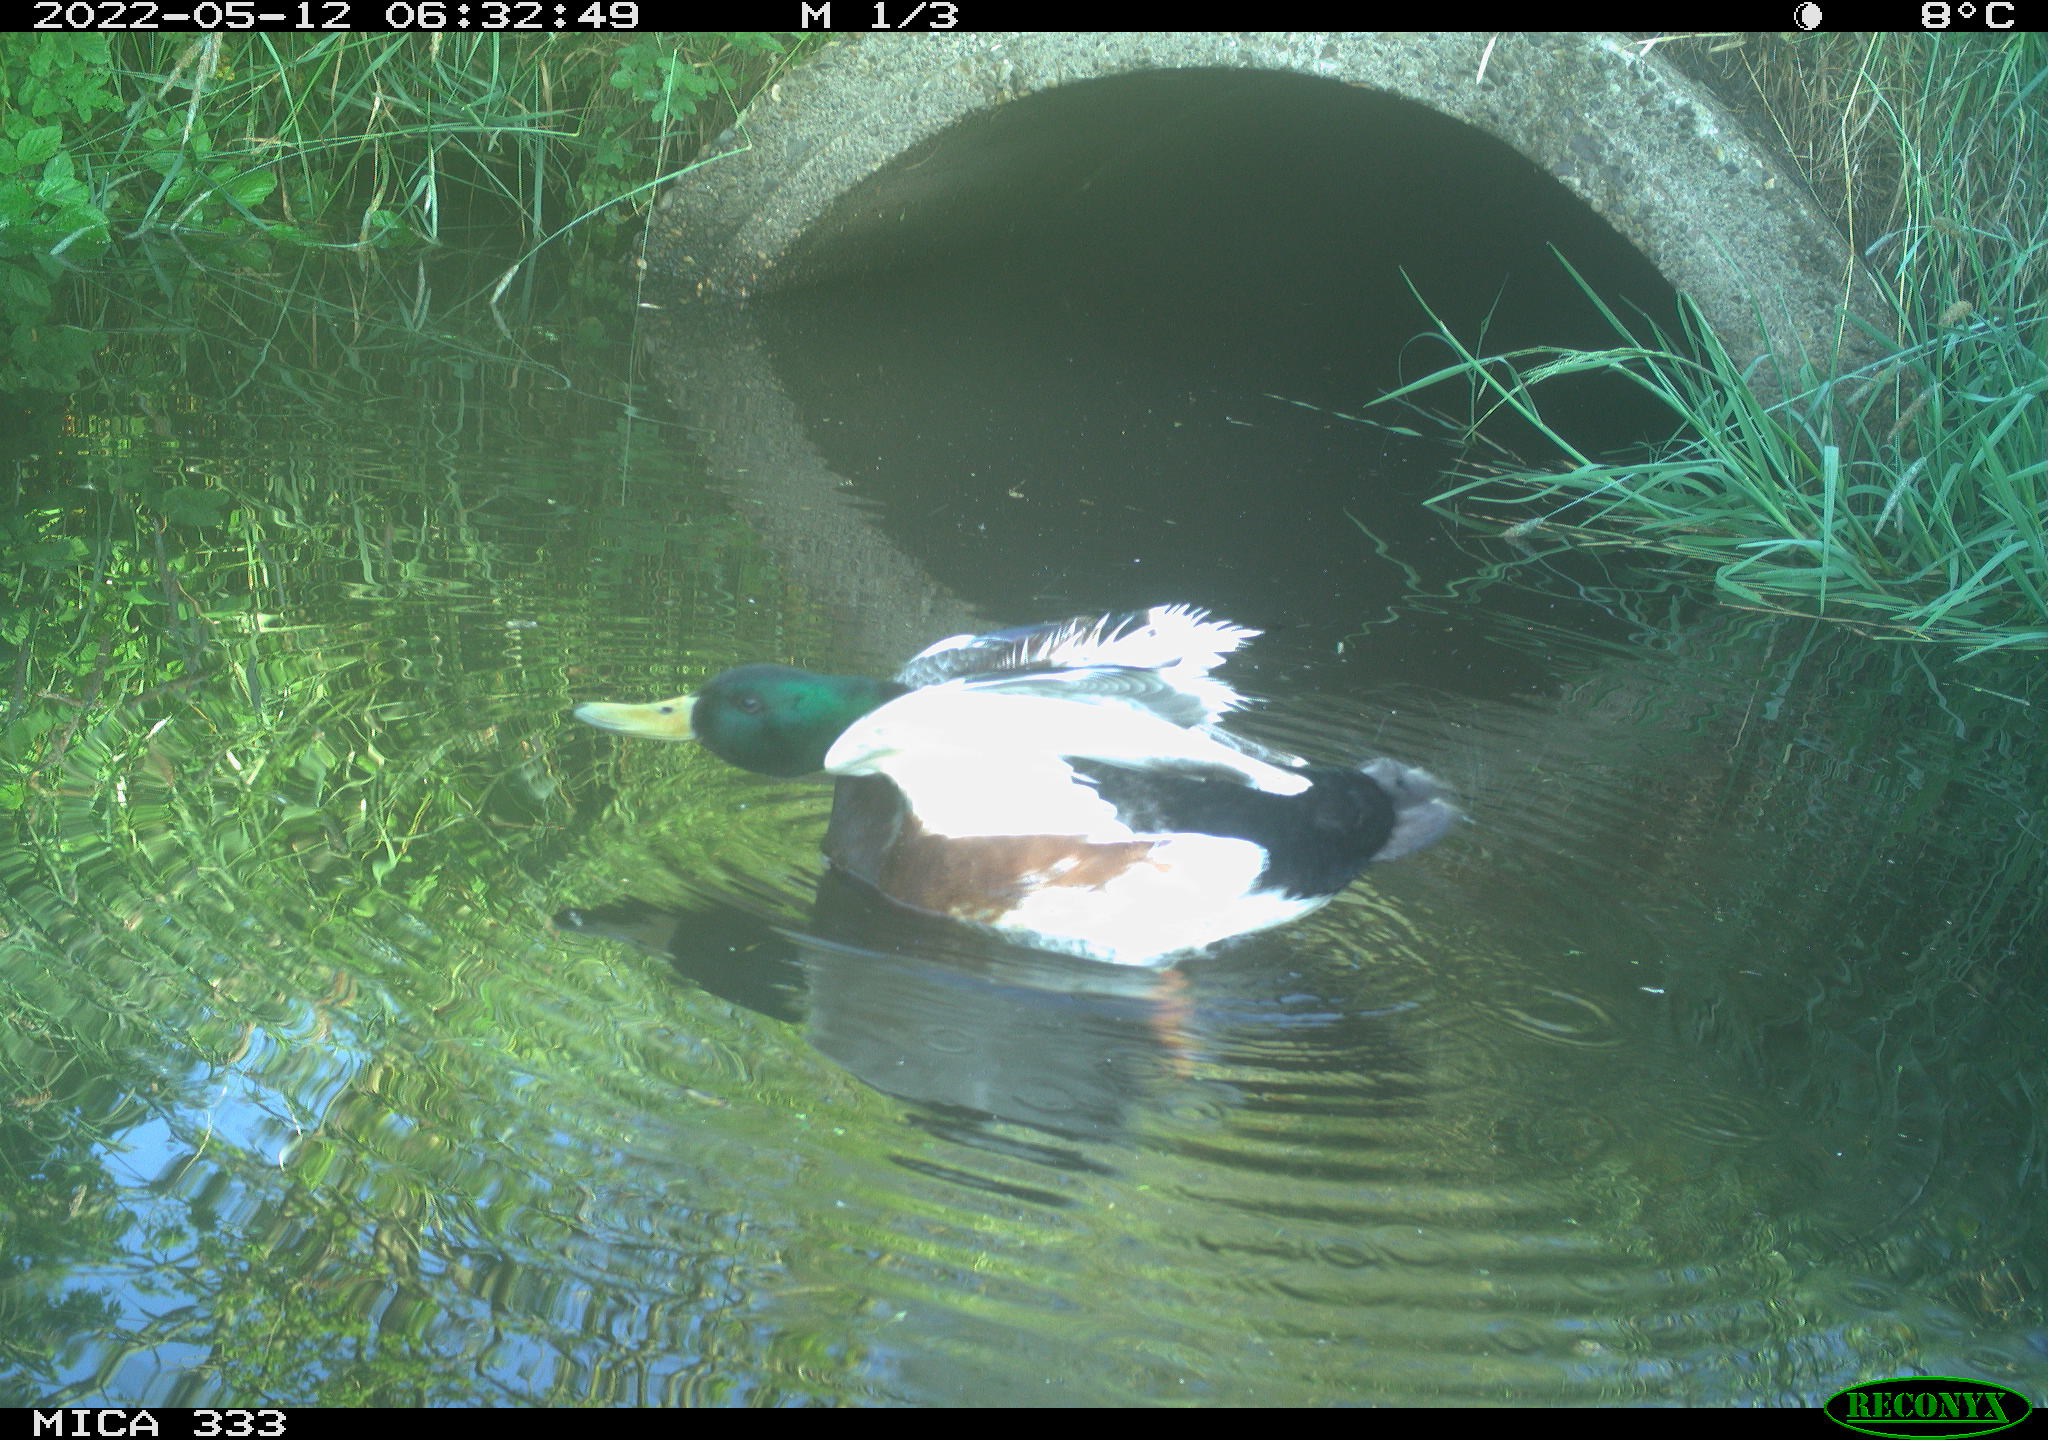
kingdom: Animalia
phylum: Chordata
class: Aves
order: Anseriformes
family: Anatidae
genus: Anas
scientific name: Anas platyrhynchos
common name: Mallard
